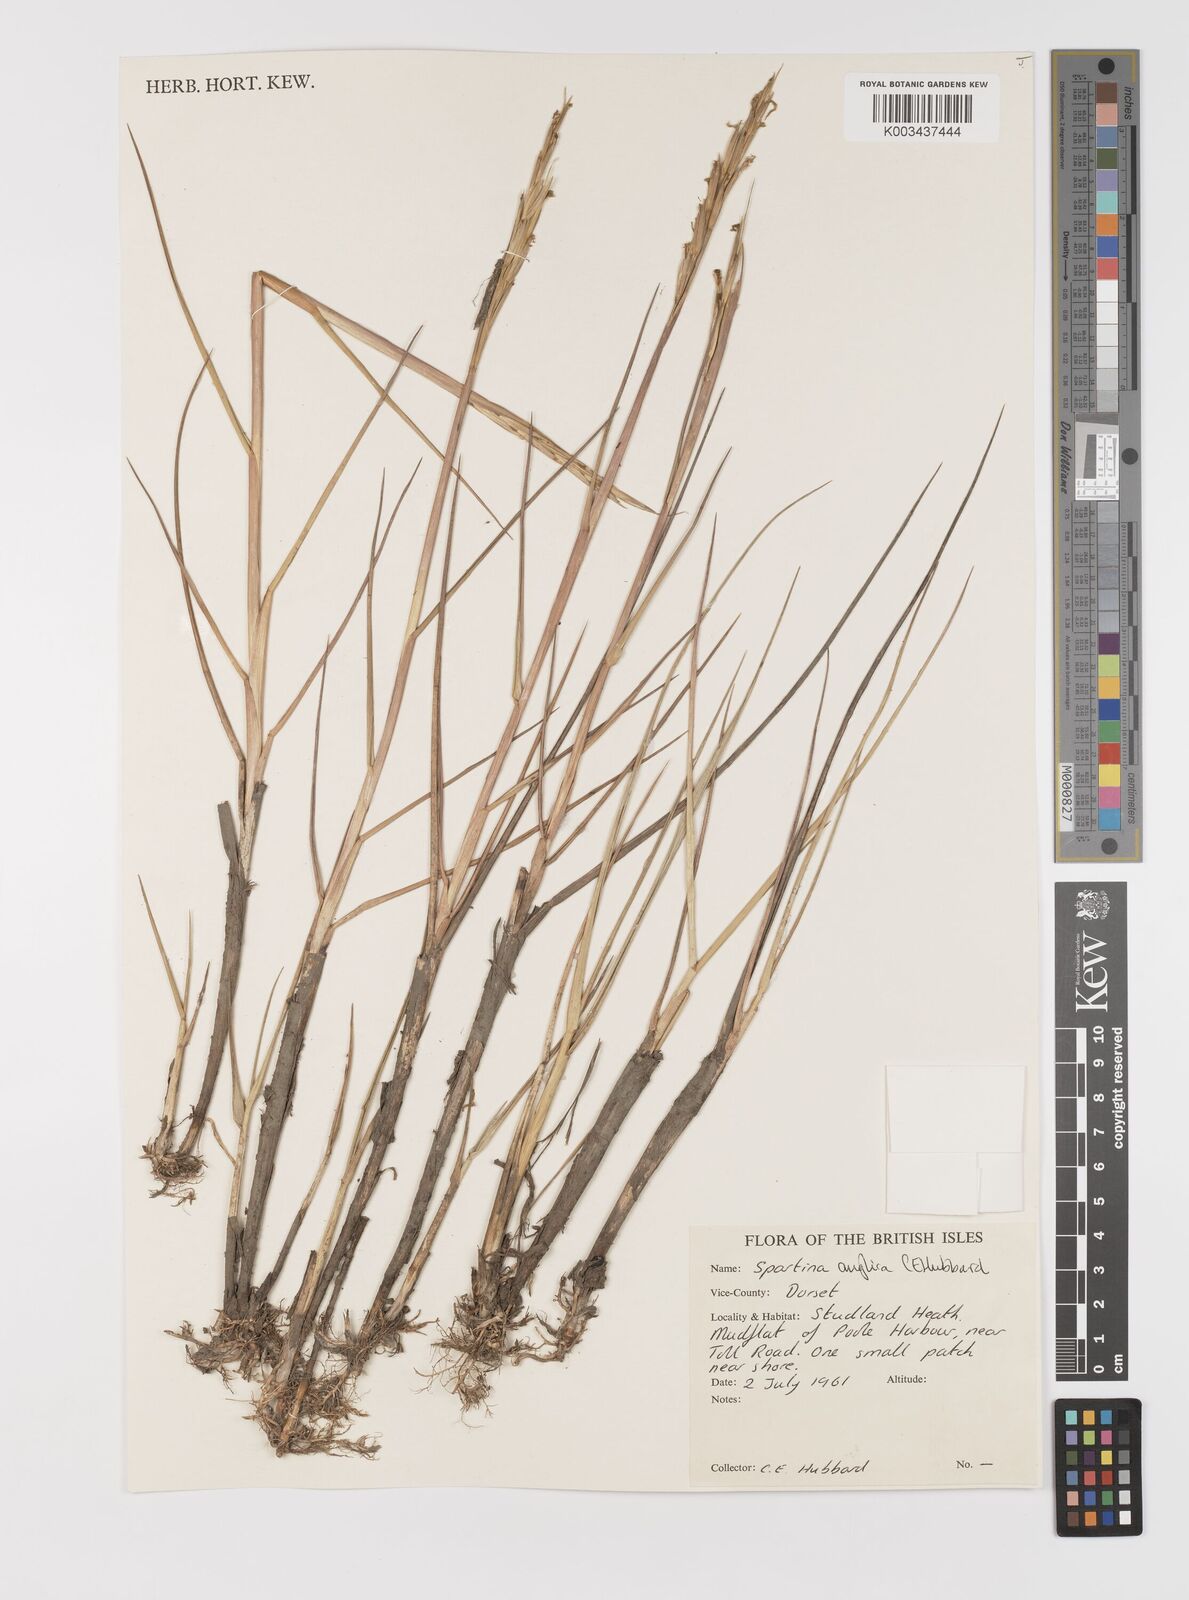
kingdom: Plantae
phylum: Tracheophyta
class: Liliopsida
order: Poales
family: Poaceae
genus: Sporobolus
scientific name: Sporobolus anglicus
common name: English cordgrass
